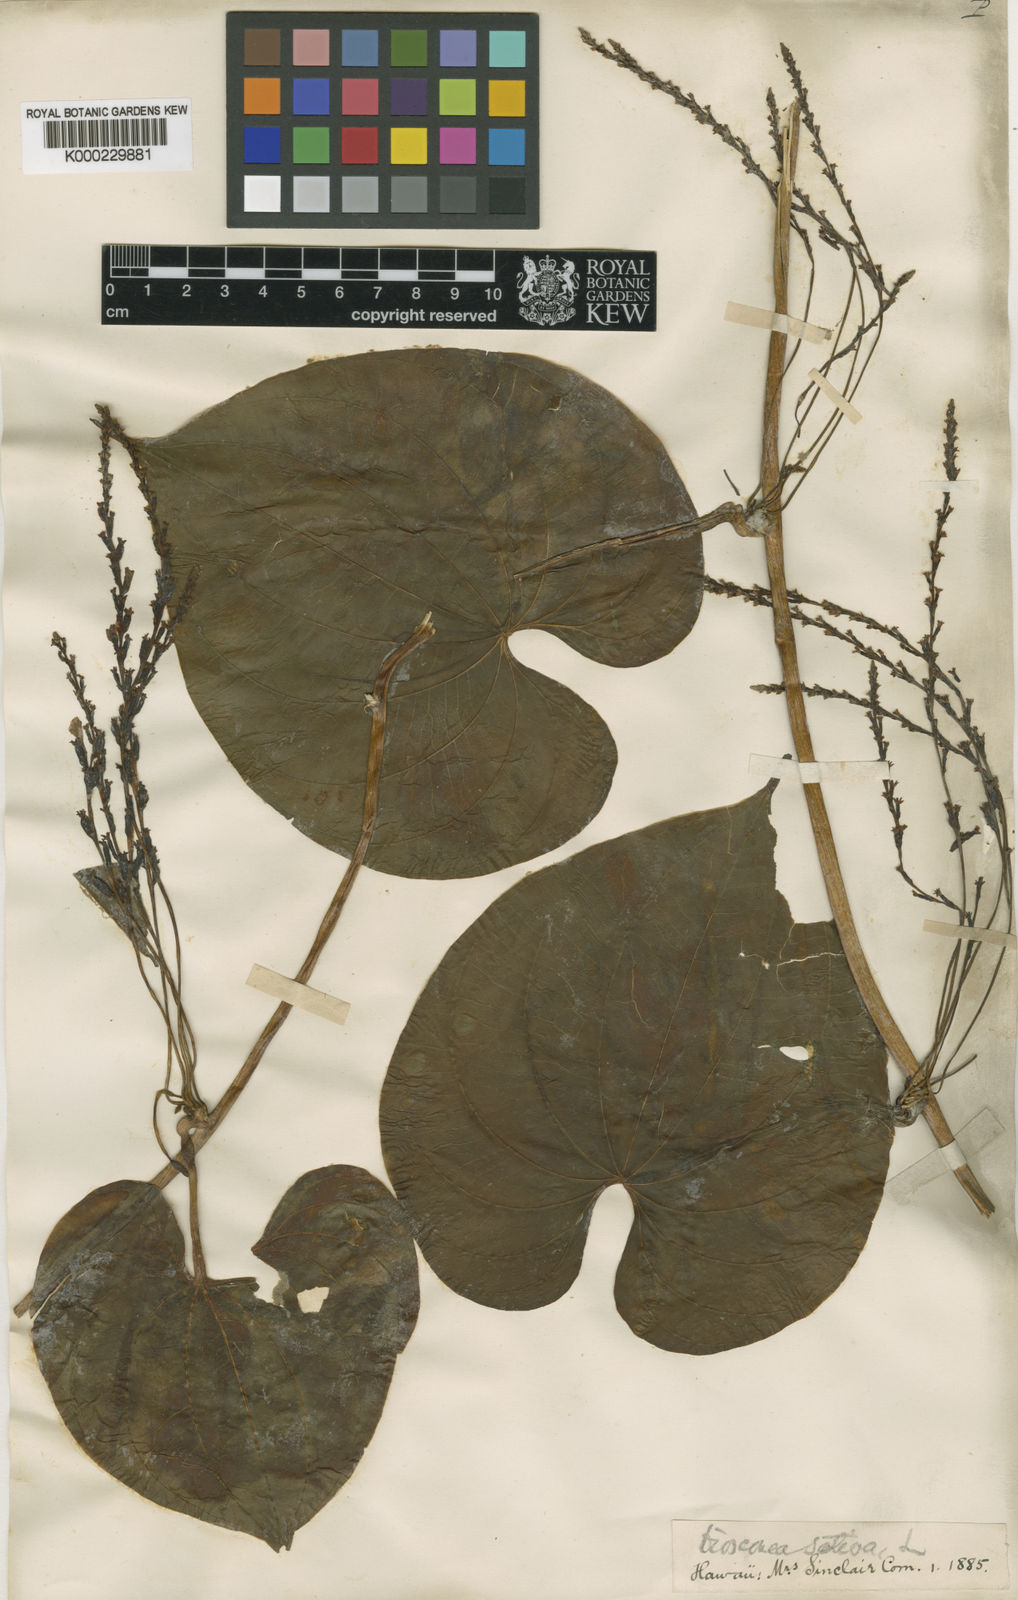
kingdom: Plantae
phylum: Tracheophyta
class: Liliopsida
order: Dioscoreales
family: Dioscoreaceae
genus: Dioscorea
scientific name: Dioscorea bulbifera
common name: Air yam
